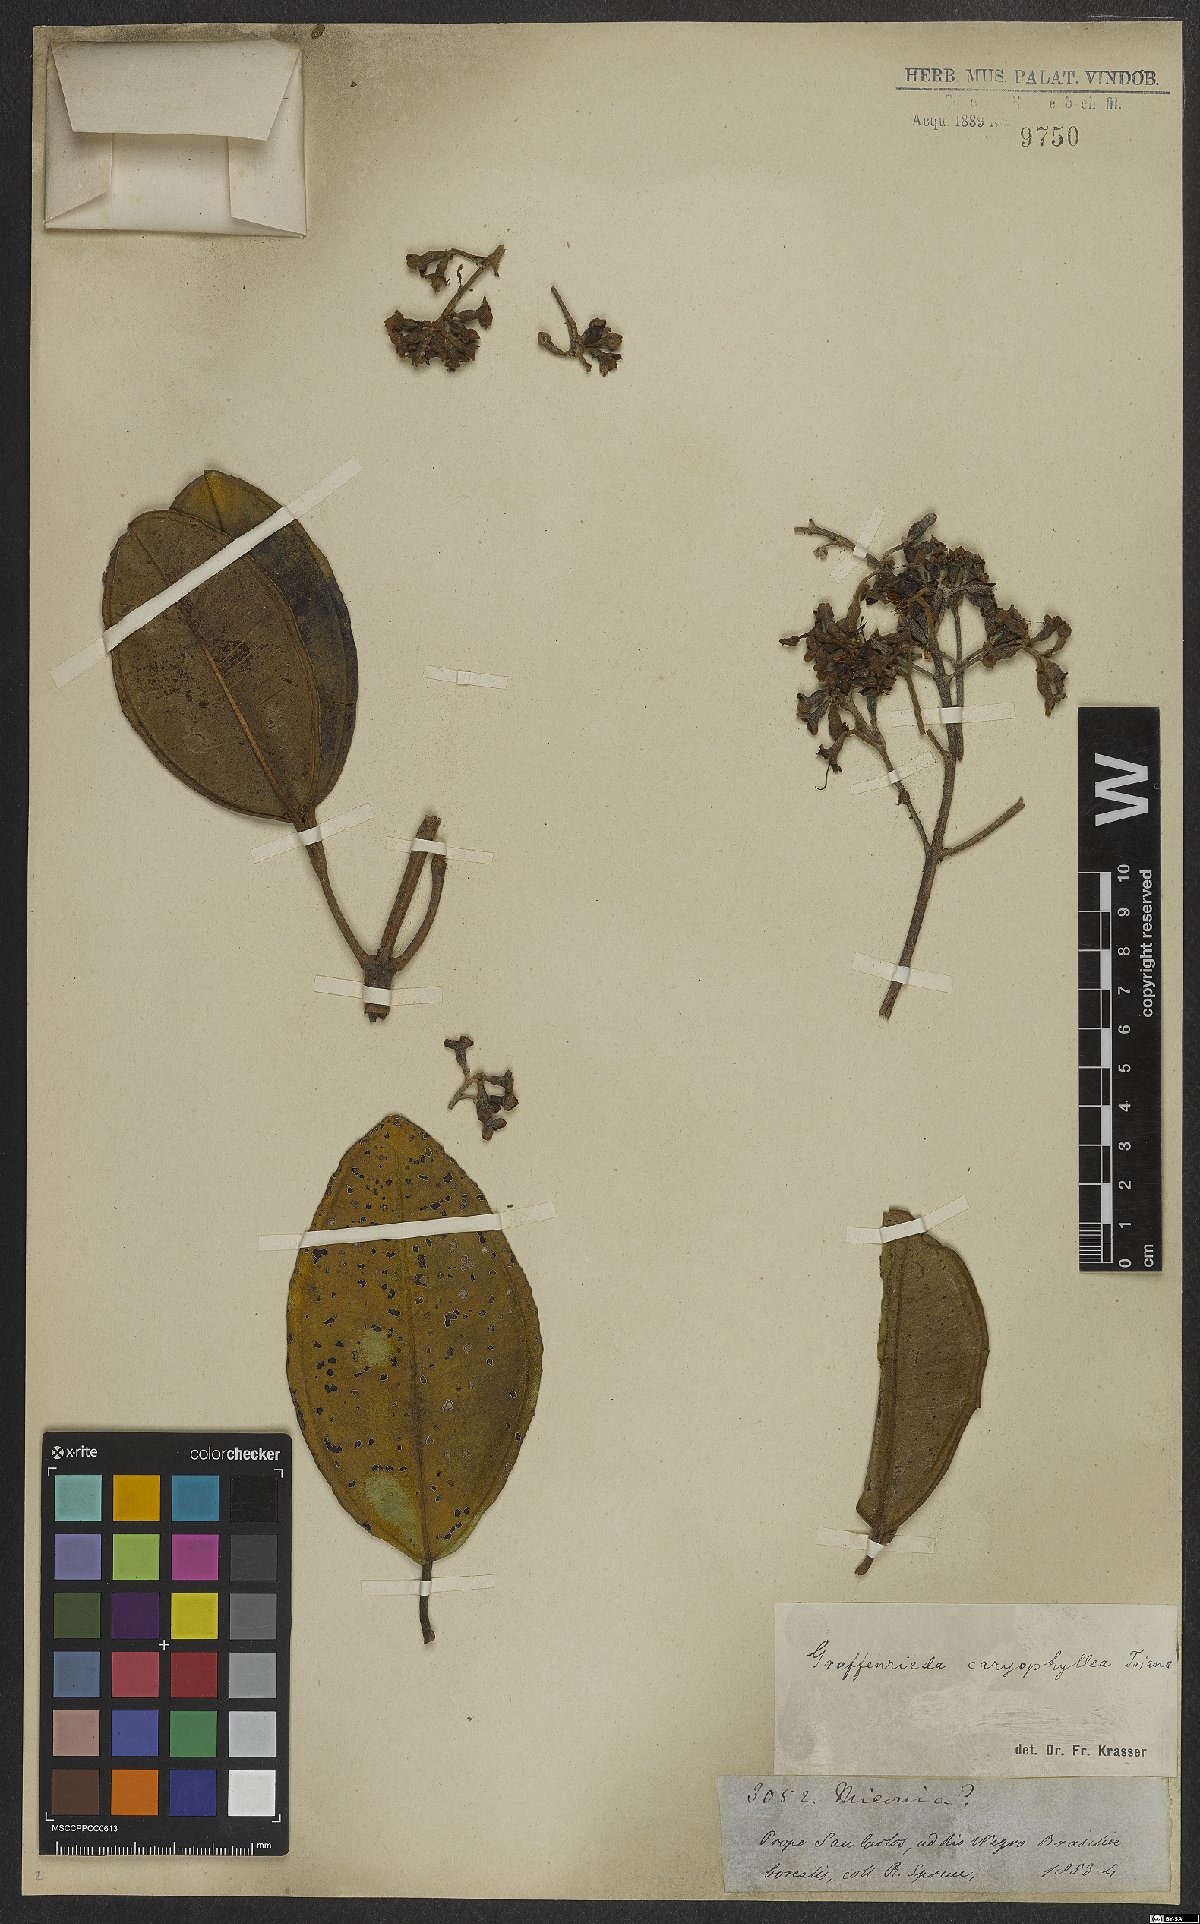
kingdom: Plantae
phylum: Tracheophyta
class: Magnoliopsida
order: Myrtales
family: Melastomataceae
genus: Graffenrieda
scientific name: Graffenrieda caryophyllea
